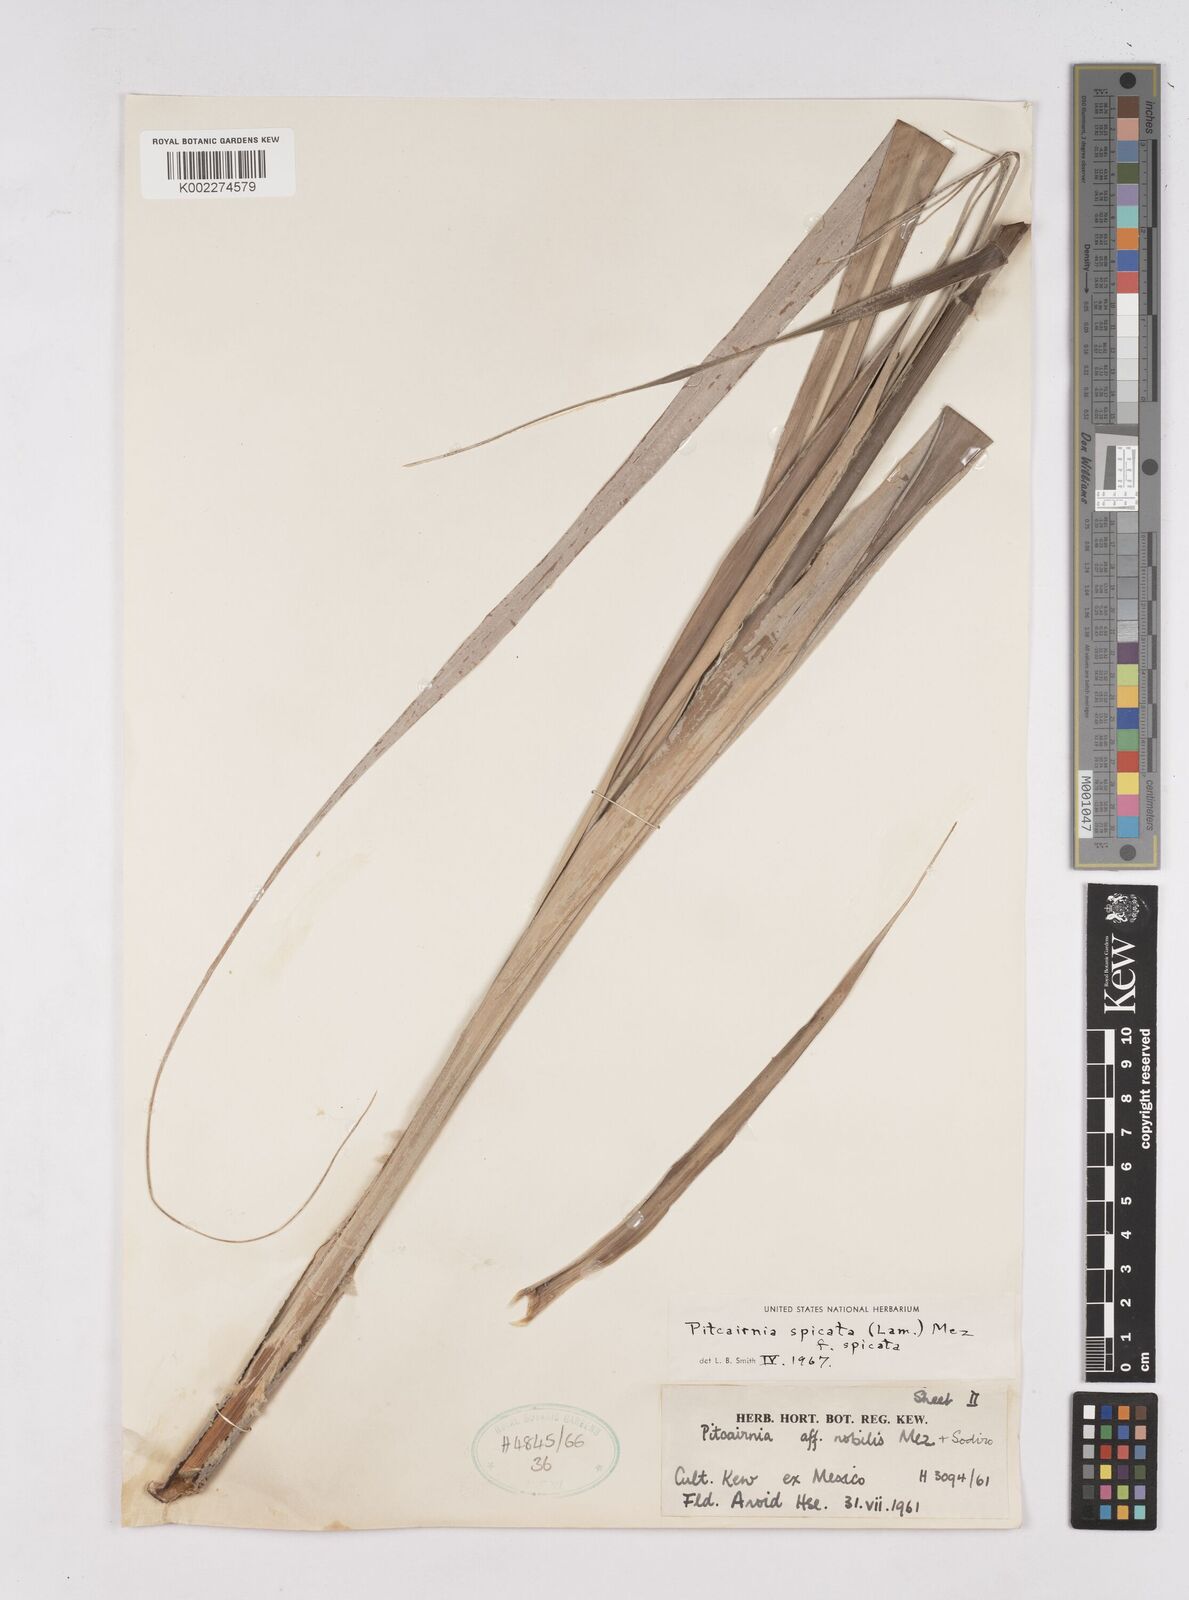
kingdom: Plantae
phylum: Tracheophyta
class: Liliopsida
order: Poales
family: Bromeliaceae
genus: Pitcairnia
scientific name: Pitcairnia spicata
